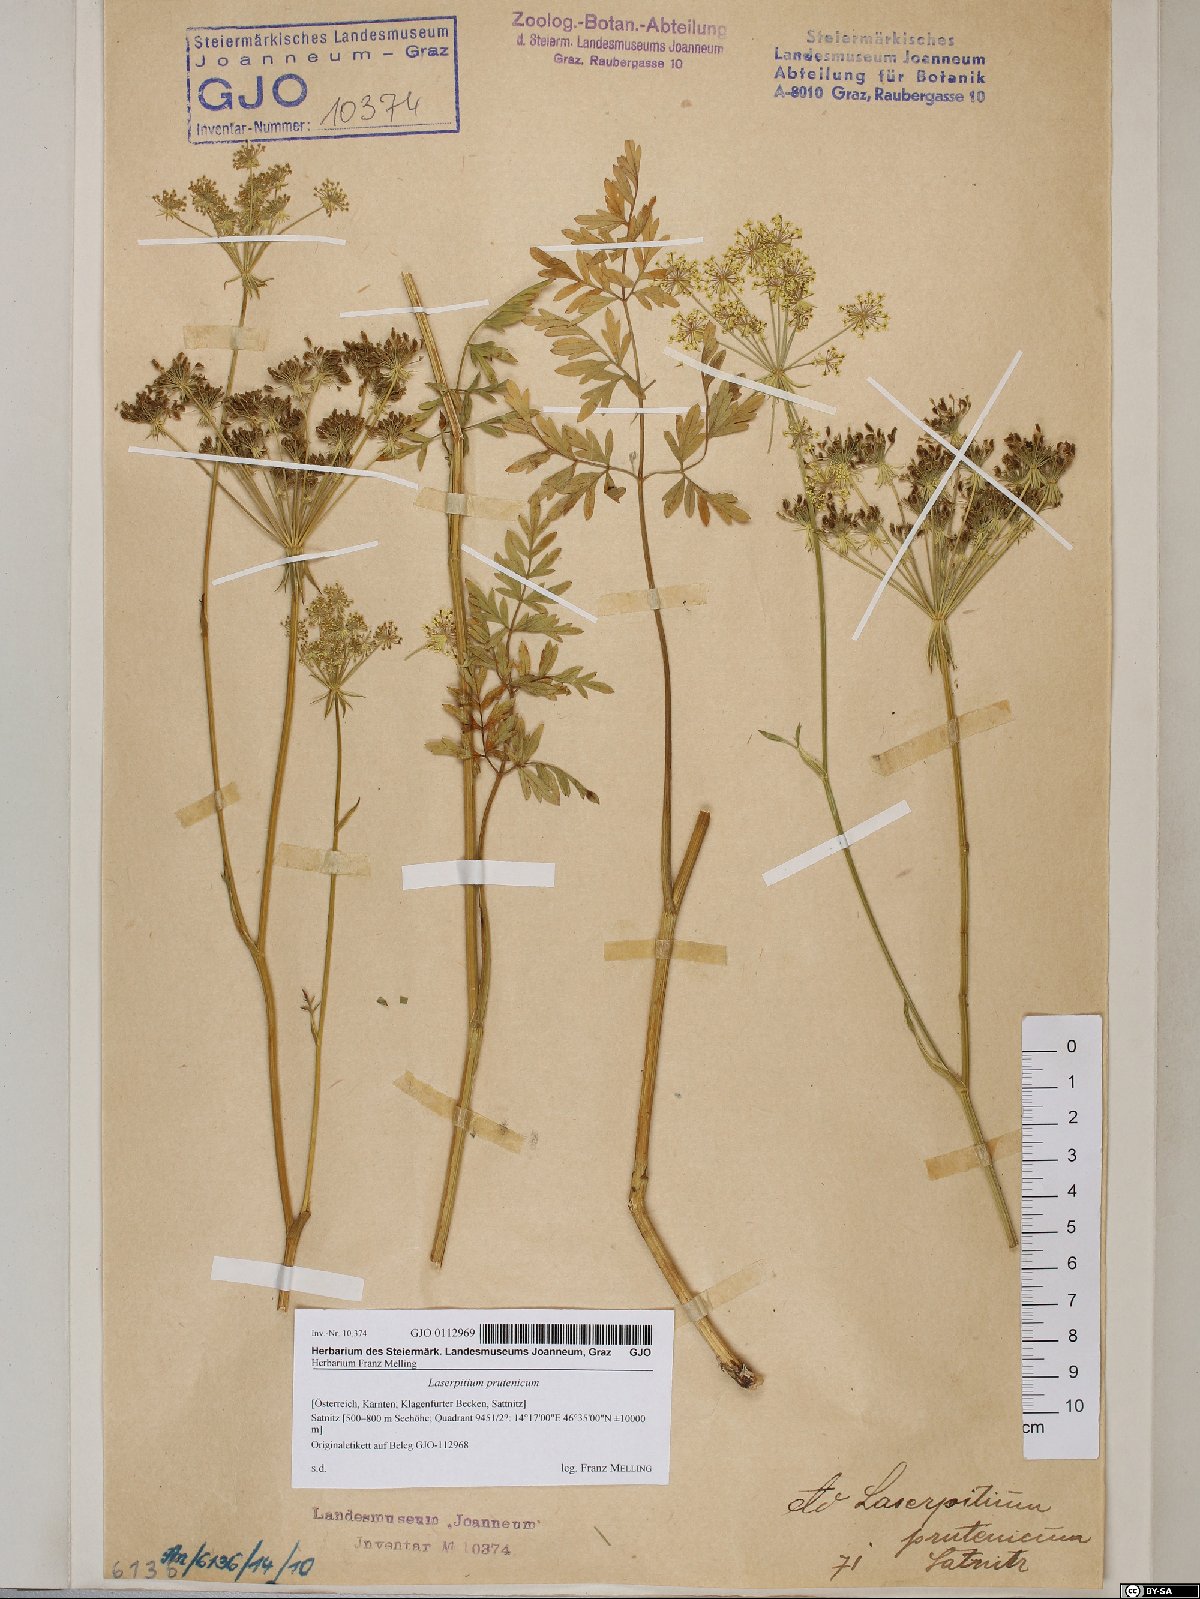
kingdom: Plantae
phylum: Tracheophyta
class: Magnoliopsida
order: Apiales
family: Apiaceae
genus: Silphiodaucus
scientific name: Silphiodaucus prutenicus
